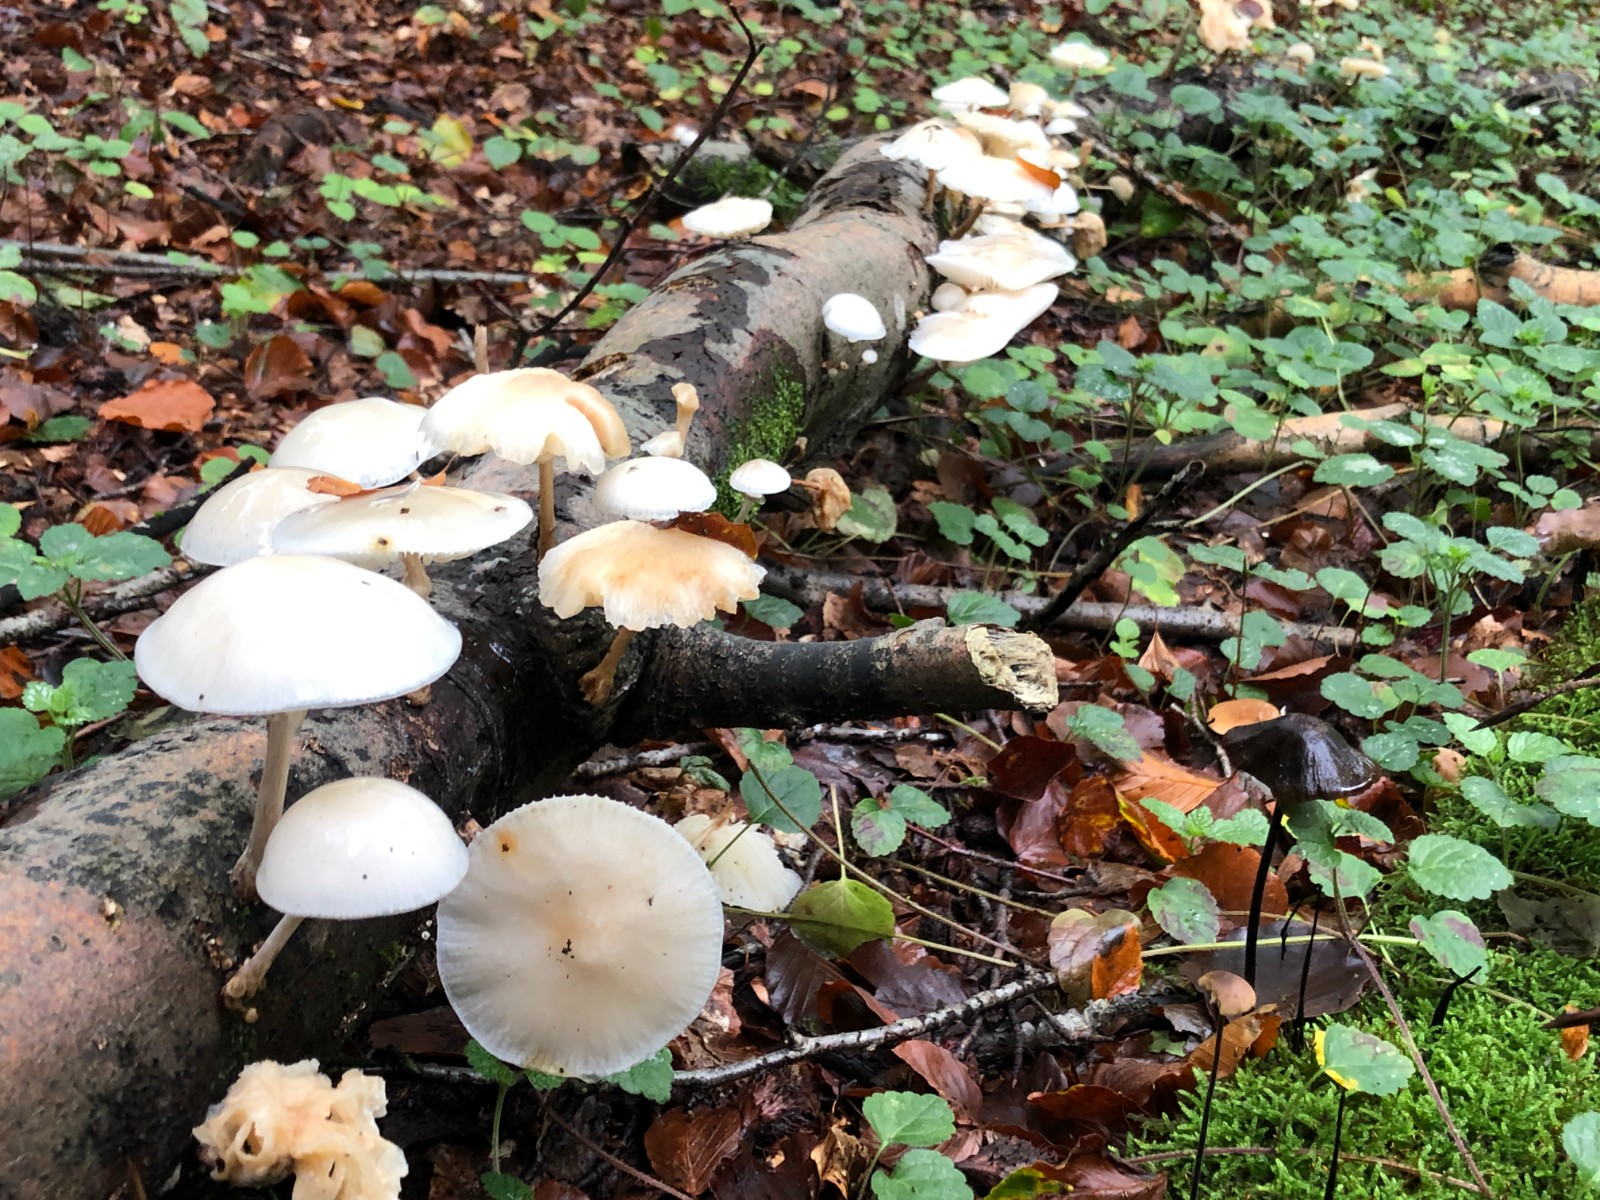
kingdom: Fungi
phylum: Basidiomycota
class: Agaricomycetes
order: Agaricales
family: Physalacriaceae
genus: Mucidula
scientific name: Mucidula mucida
